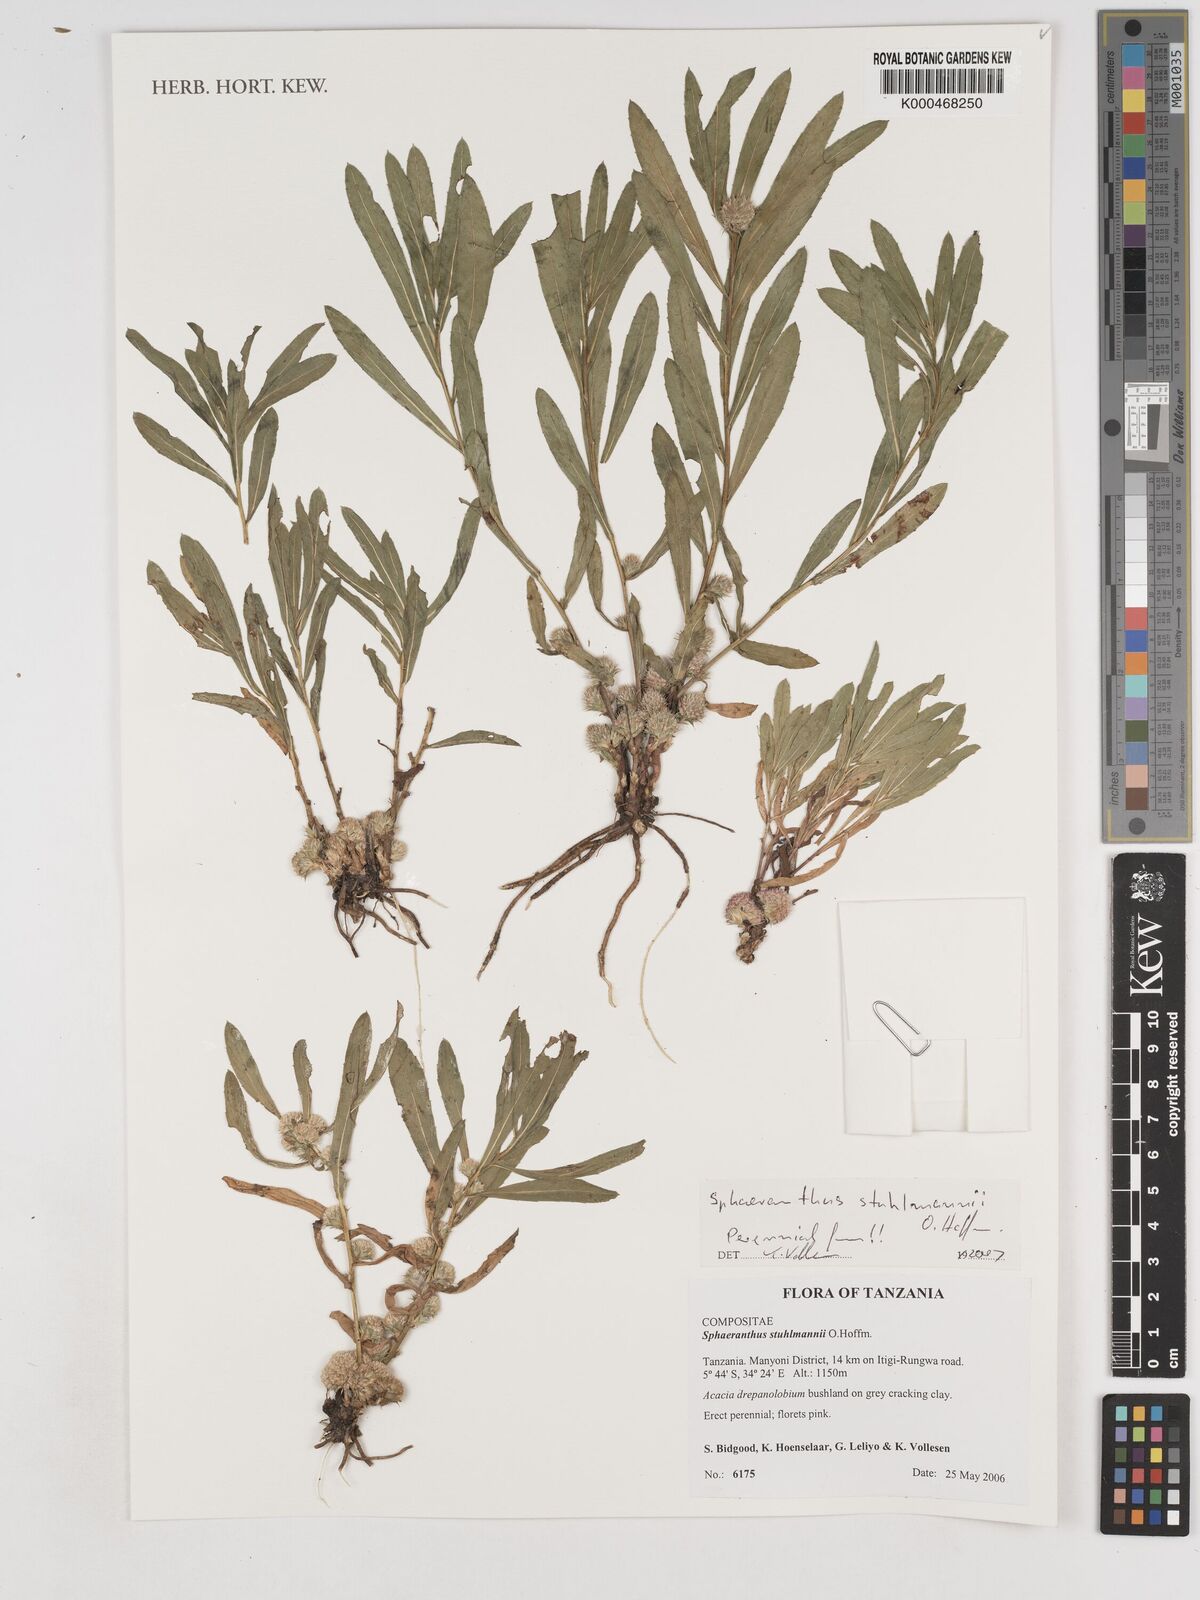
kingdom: Plantae
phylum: Tracheophyta
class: Magnoliopsida
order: Asterales
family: Asteraceae
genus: Sphaeranthus
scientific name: Sphaeranthus stuhlmannii
